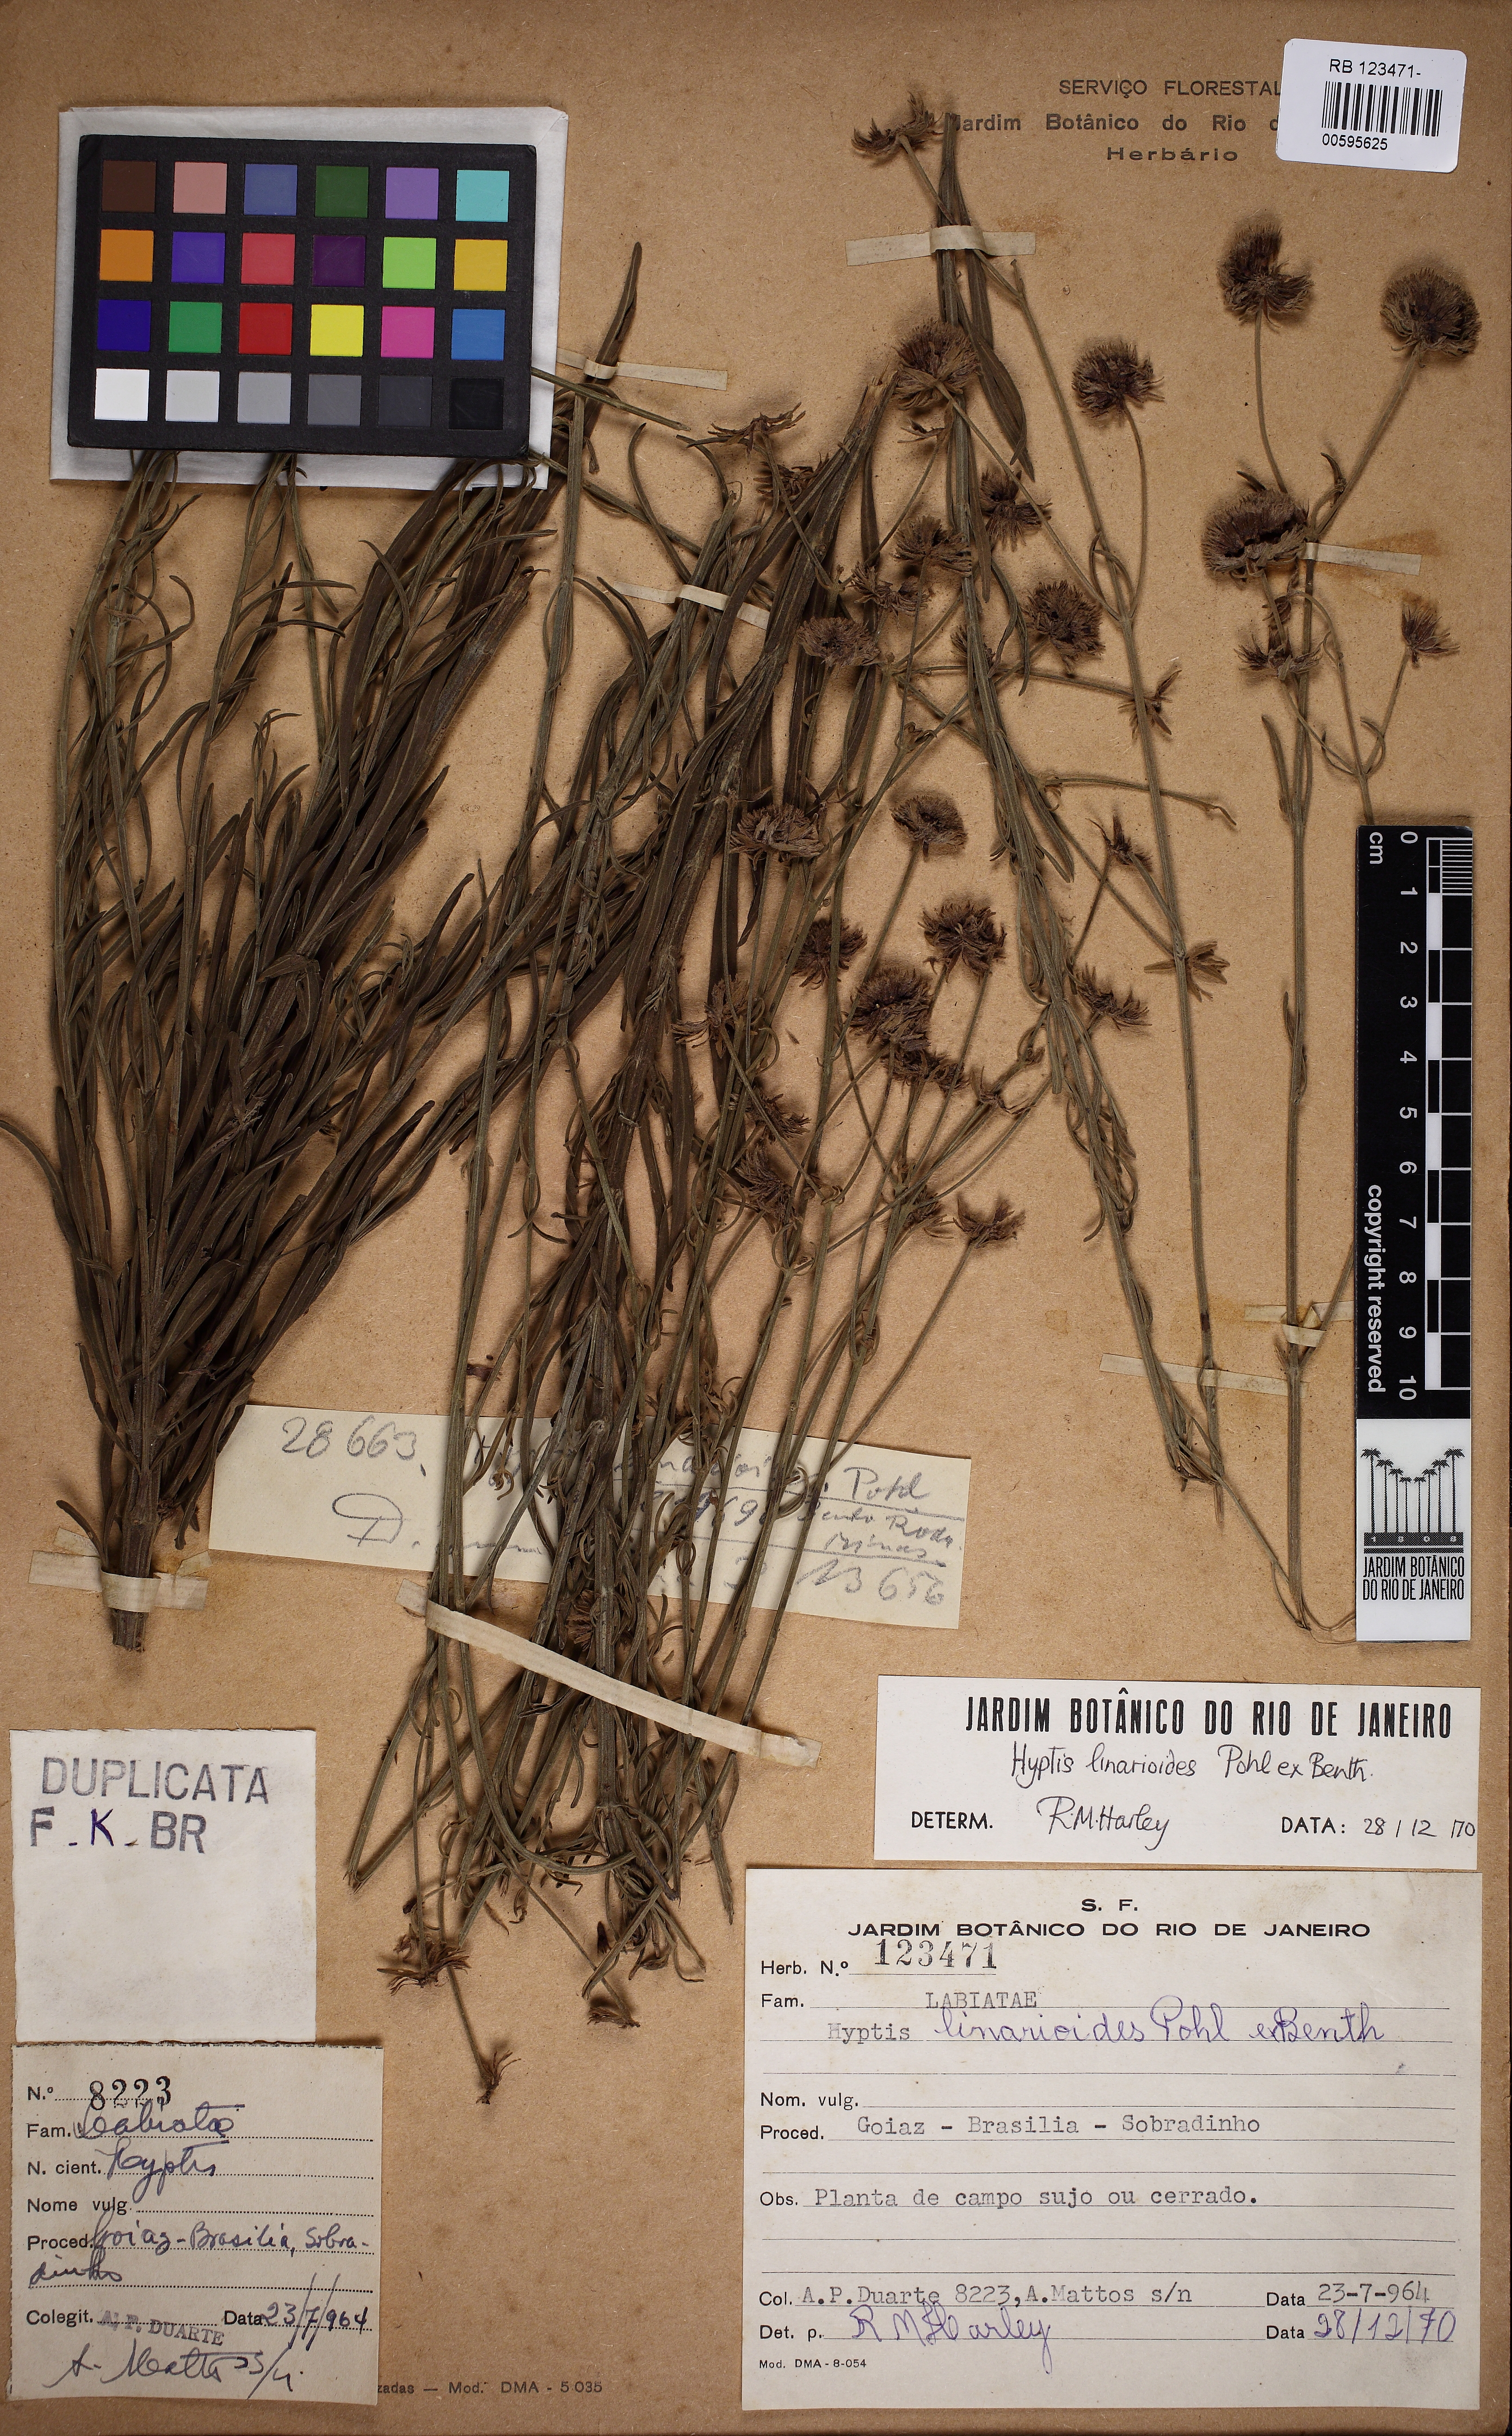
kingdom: Plantae
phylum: Tracheophyta
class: Magnoliopsida
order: Lamiales
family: Lamiaceae
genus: Hyptis
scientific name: Hyptis linarioides
